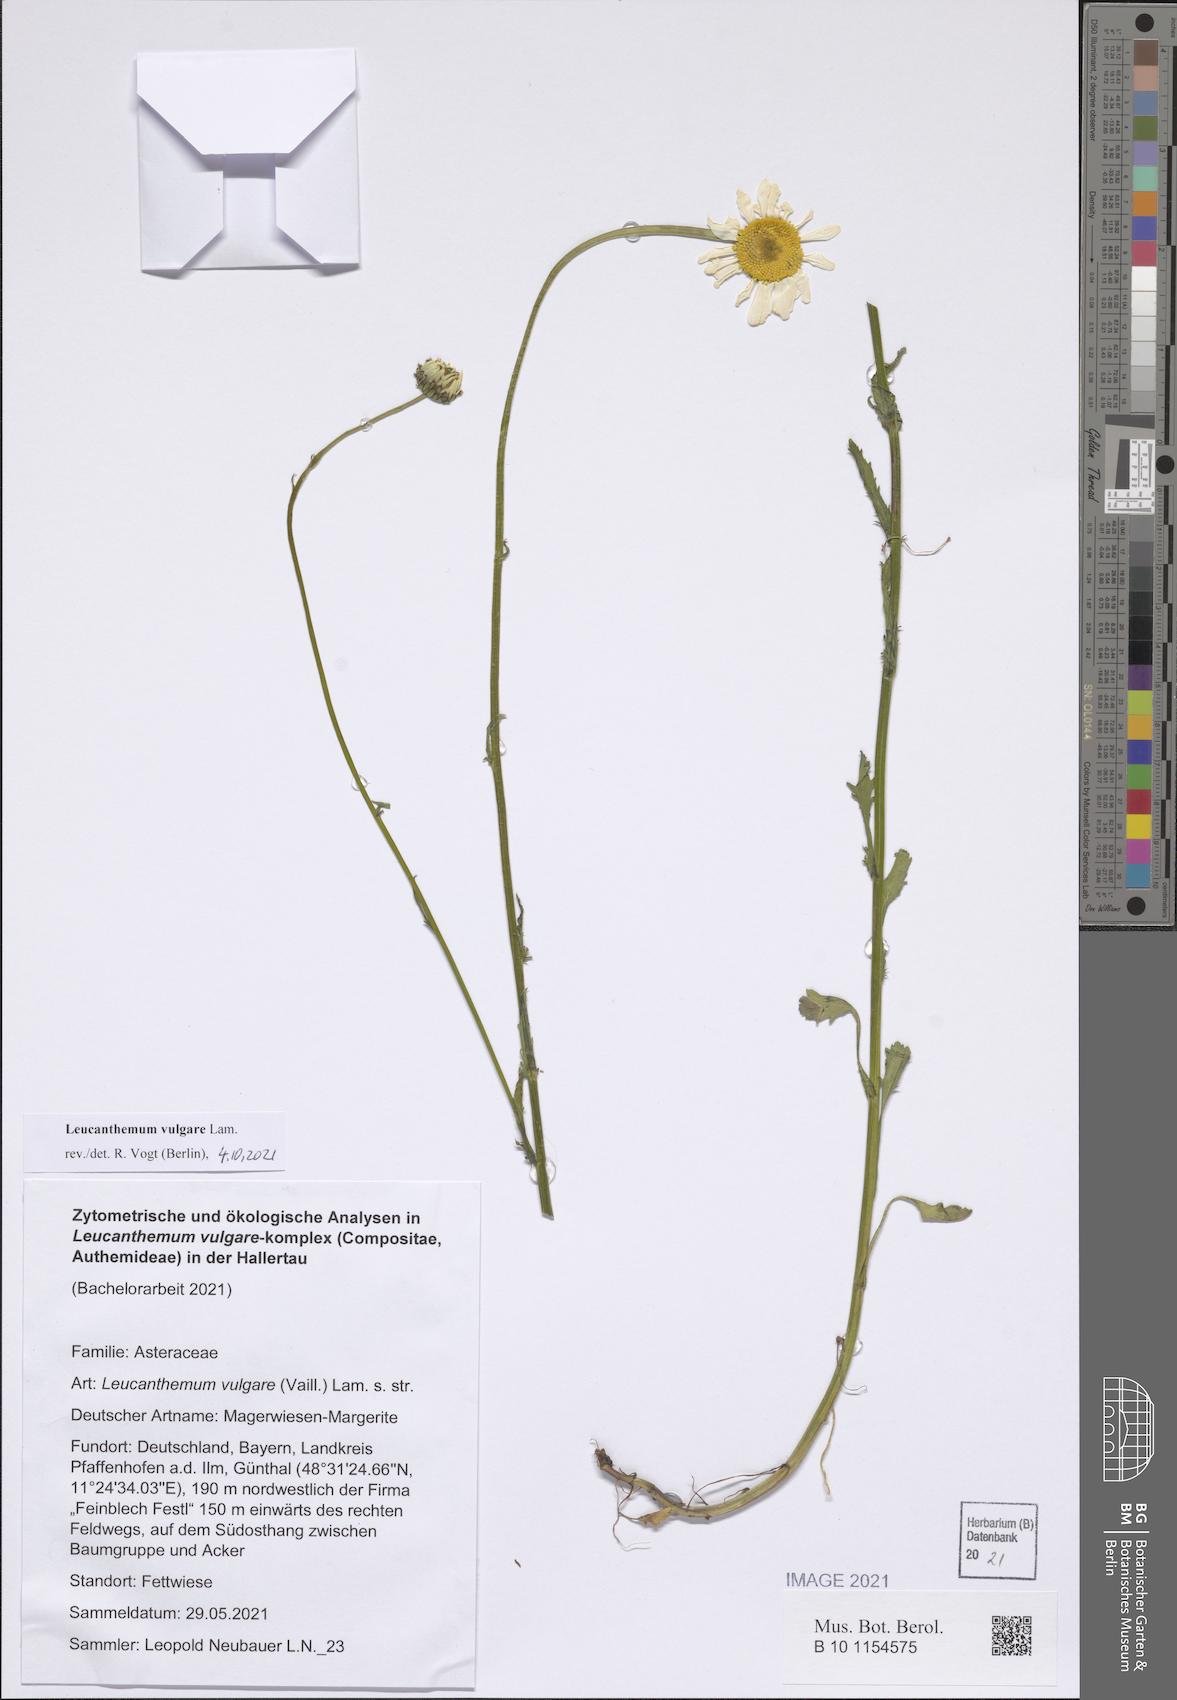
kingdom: Plantae
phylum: Tracheophyta
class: Magnoliopsida
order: Asterales
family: Asteraceae
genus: Leucanthemum
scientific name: Leucanthemum vulgare
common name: Oxeye daisy
